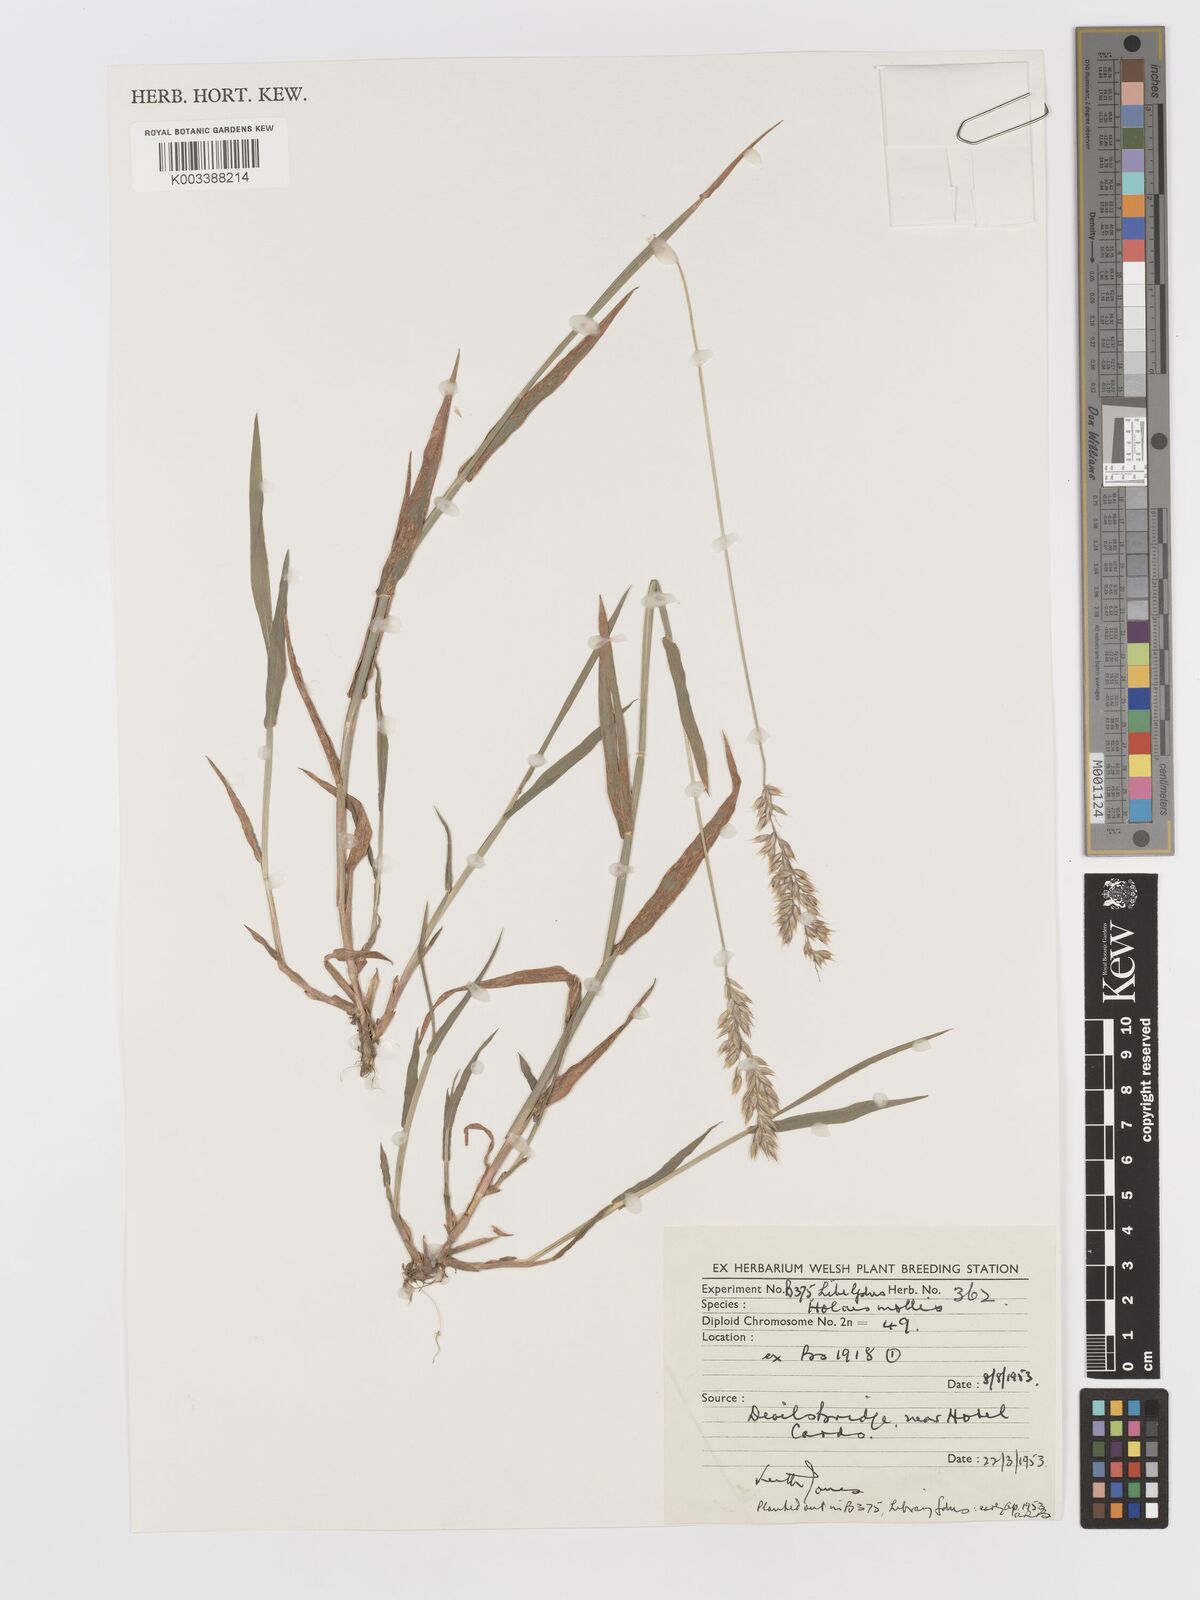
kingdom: Plantae
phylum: Tracheophyta
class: Liliopsida
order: Poales
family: Poaceae
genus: Holcus
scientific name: Holcus mollis
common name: Creeping velvetgrass
